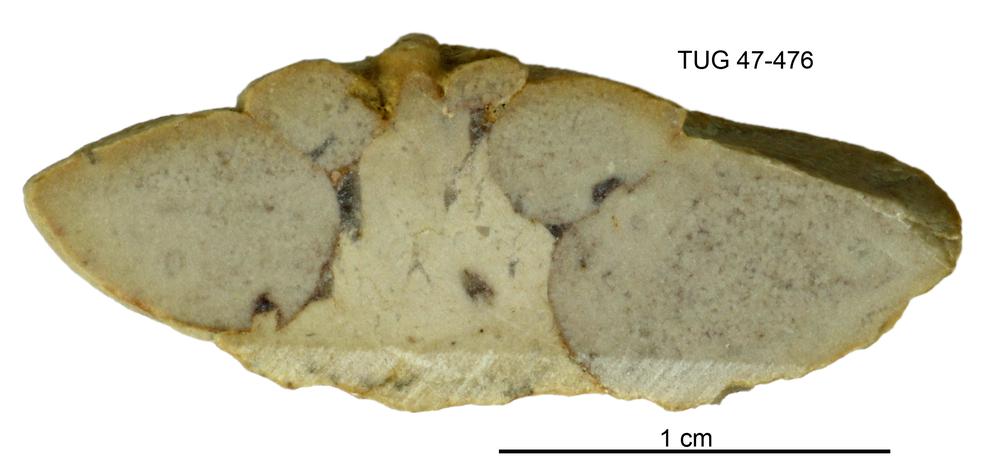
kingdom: Animalia
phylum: Mollusca
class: Gastropoda
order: Pleurotomariida
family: Eotomariidae
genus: Liospira
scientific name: Liospira Raphistoma wesenbergense
